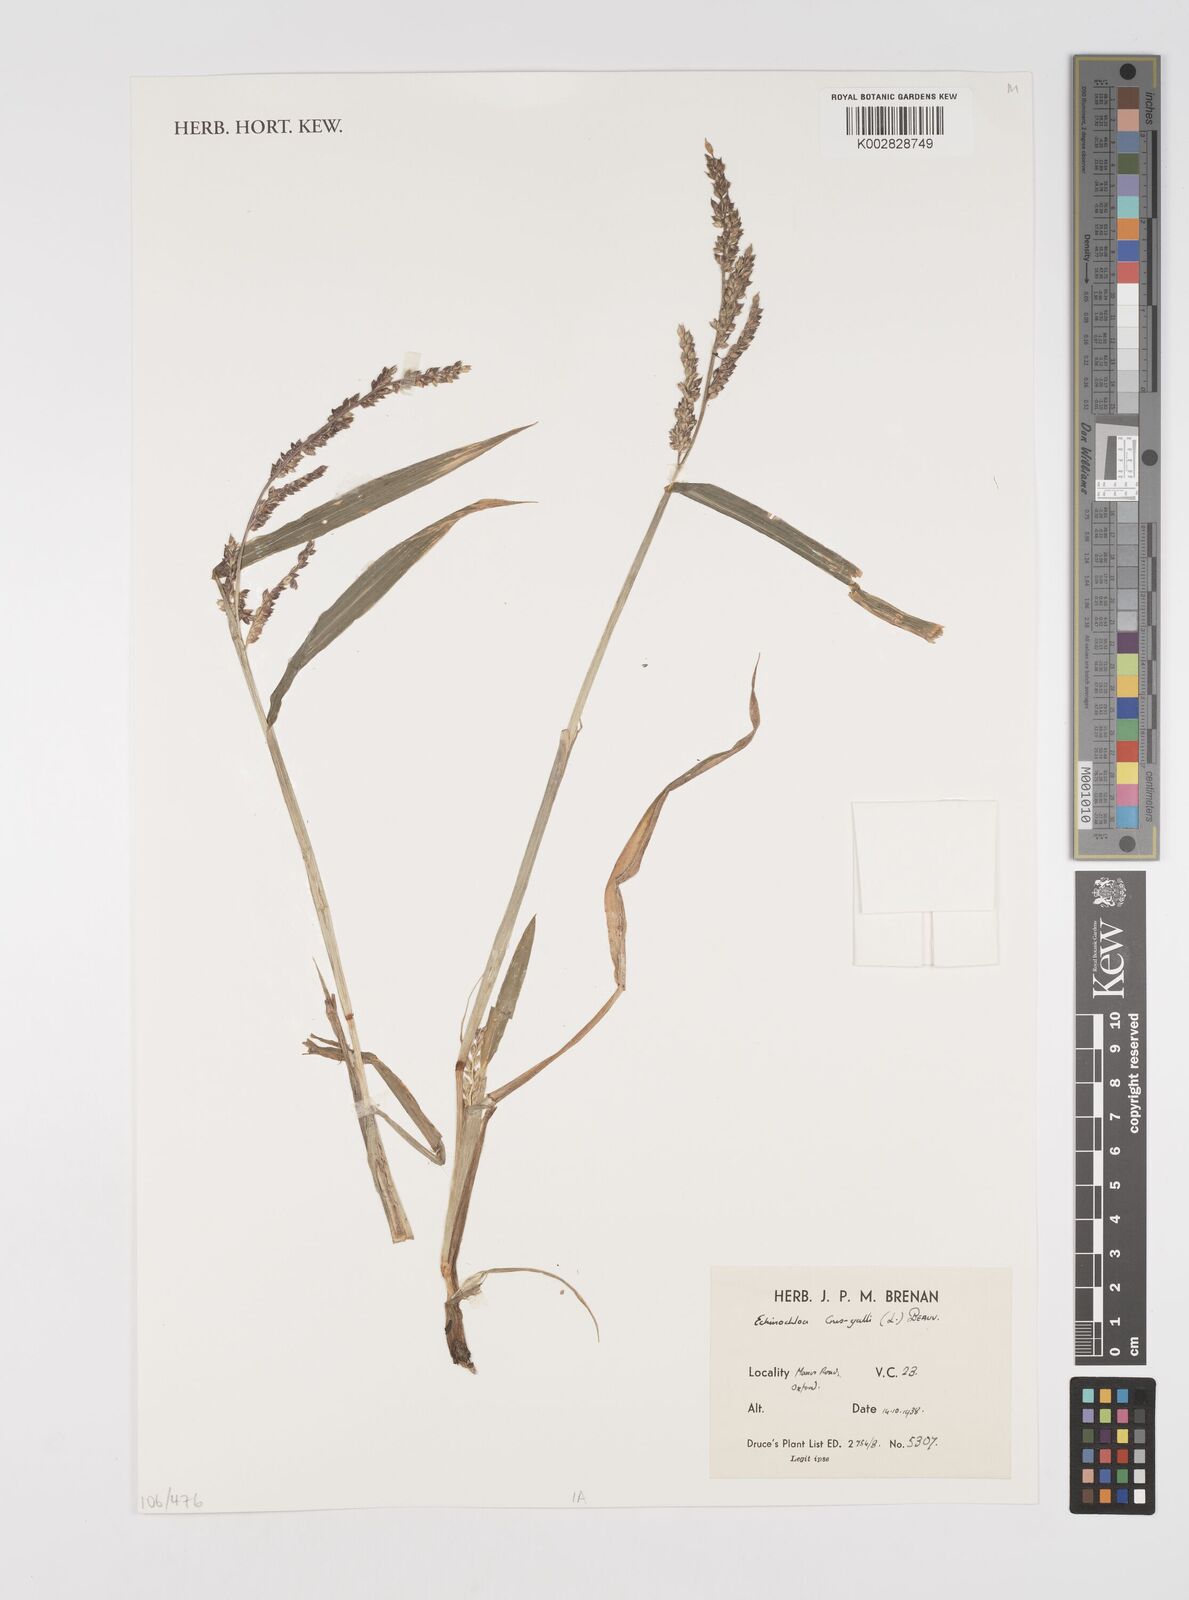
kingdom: Plantae
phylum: Tracheophyta
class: Liliopsida
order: Poales
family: Poaceae
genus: Echinochloa
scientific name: Echinochloa crus-galli
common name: Cockspur
